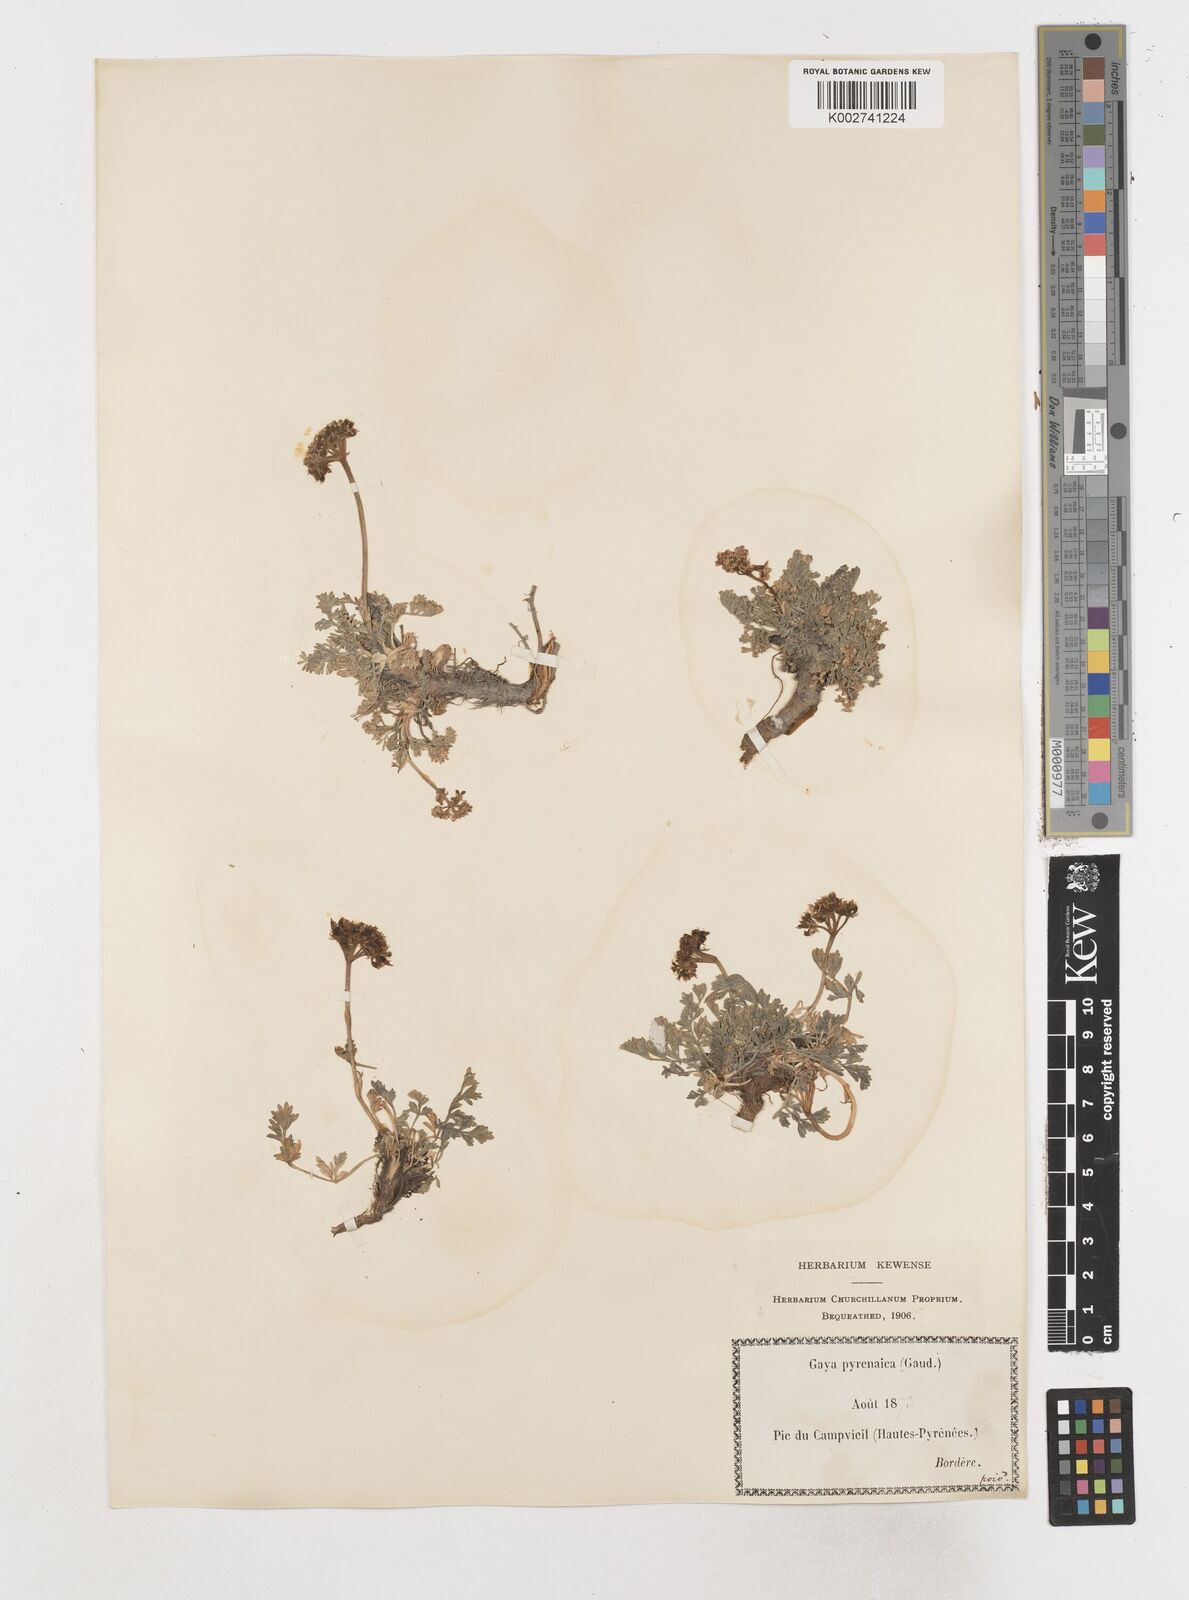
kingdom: Plantae
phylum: Tracheophyta
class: Magnoliopsida
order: Apiales
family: Apiaceae
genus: Pachypleurum
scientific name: Pachypleurum mutellinoides
